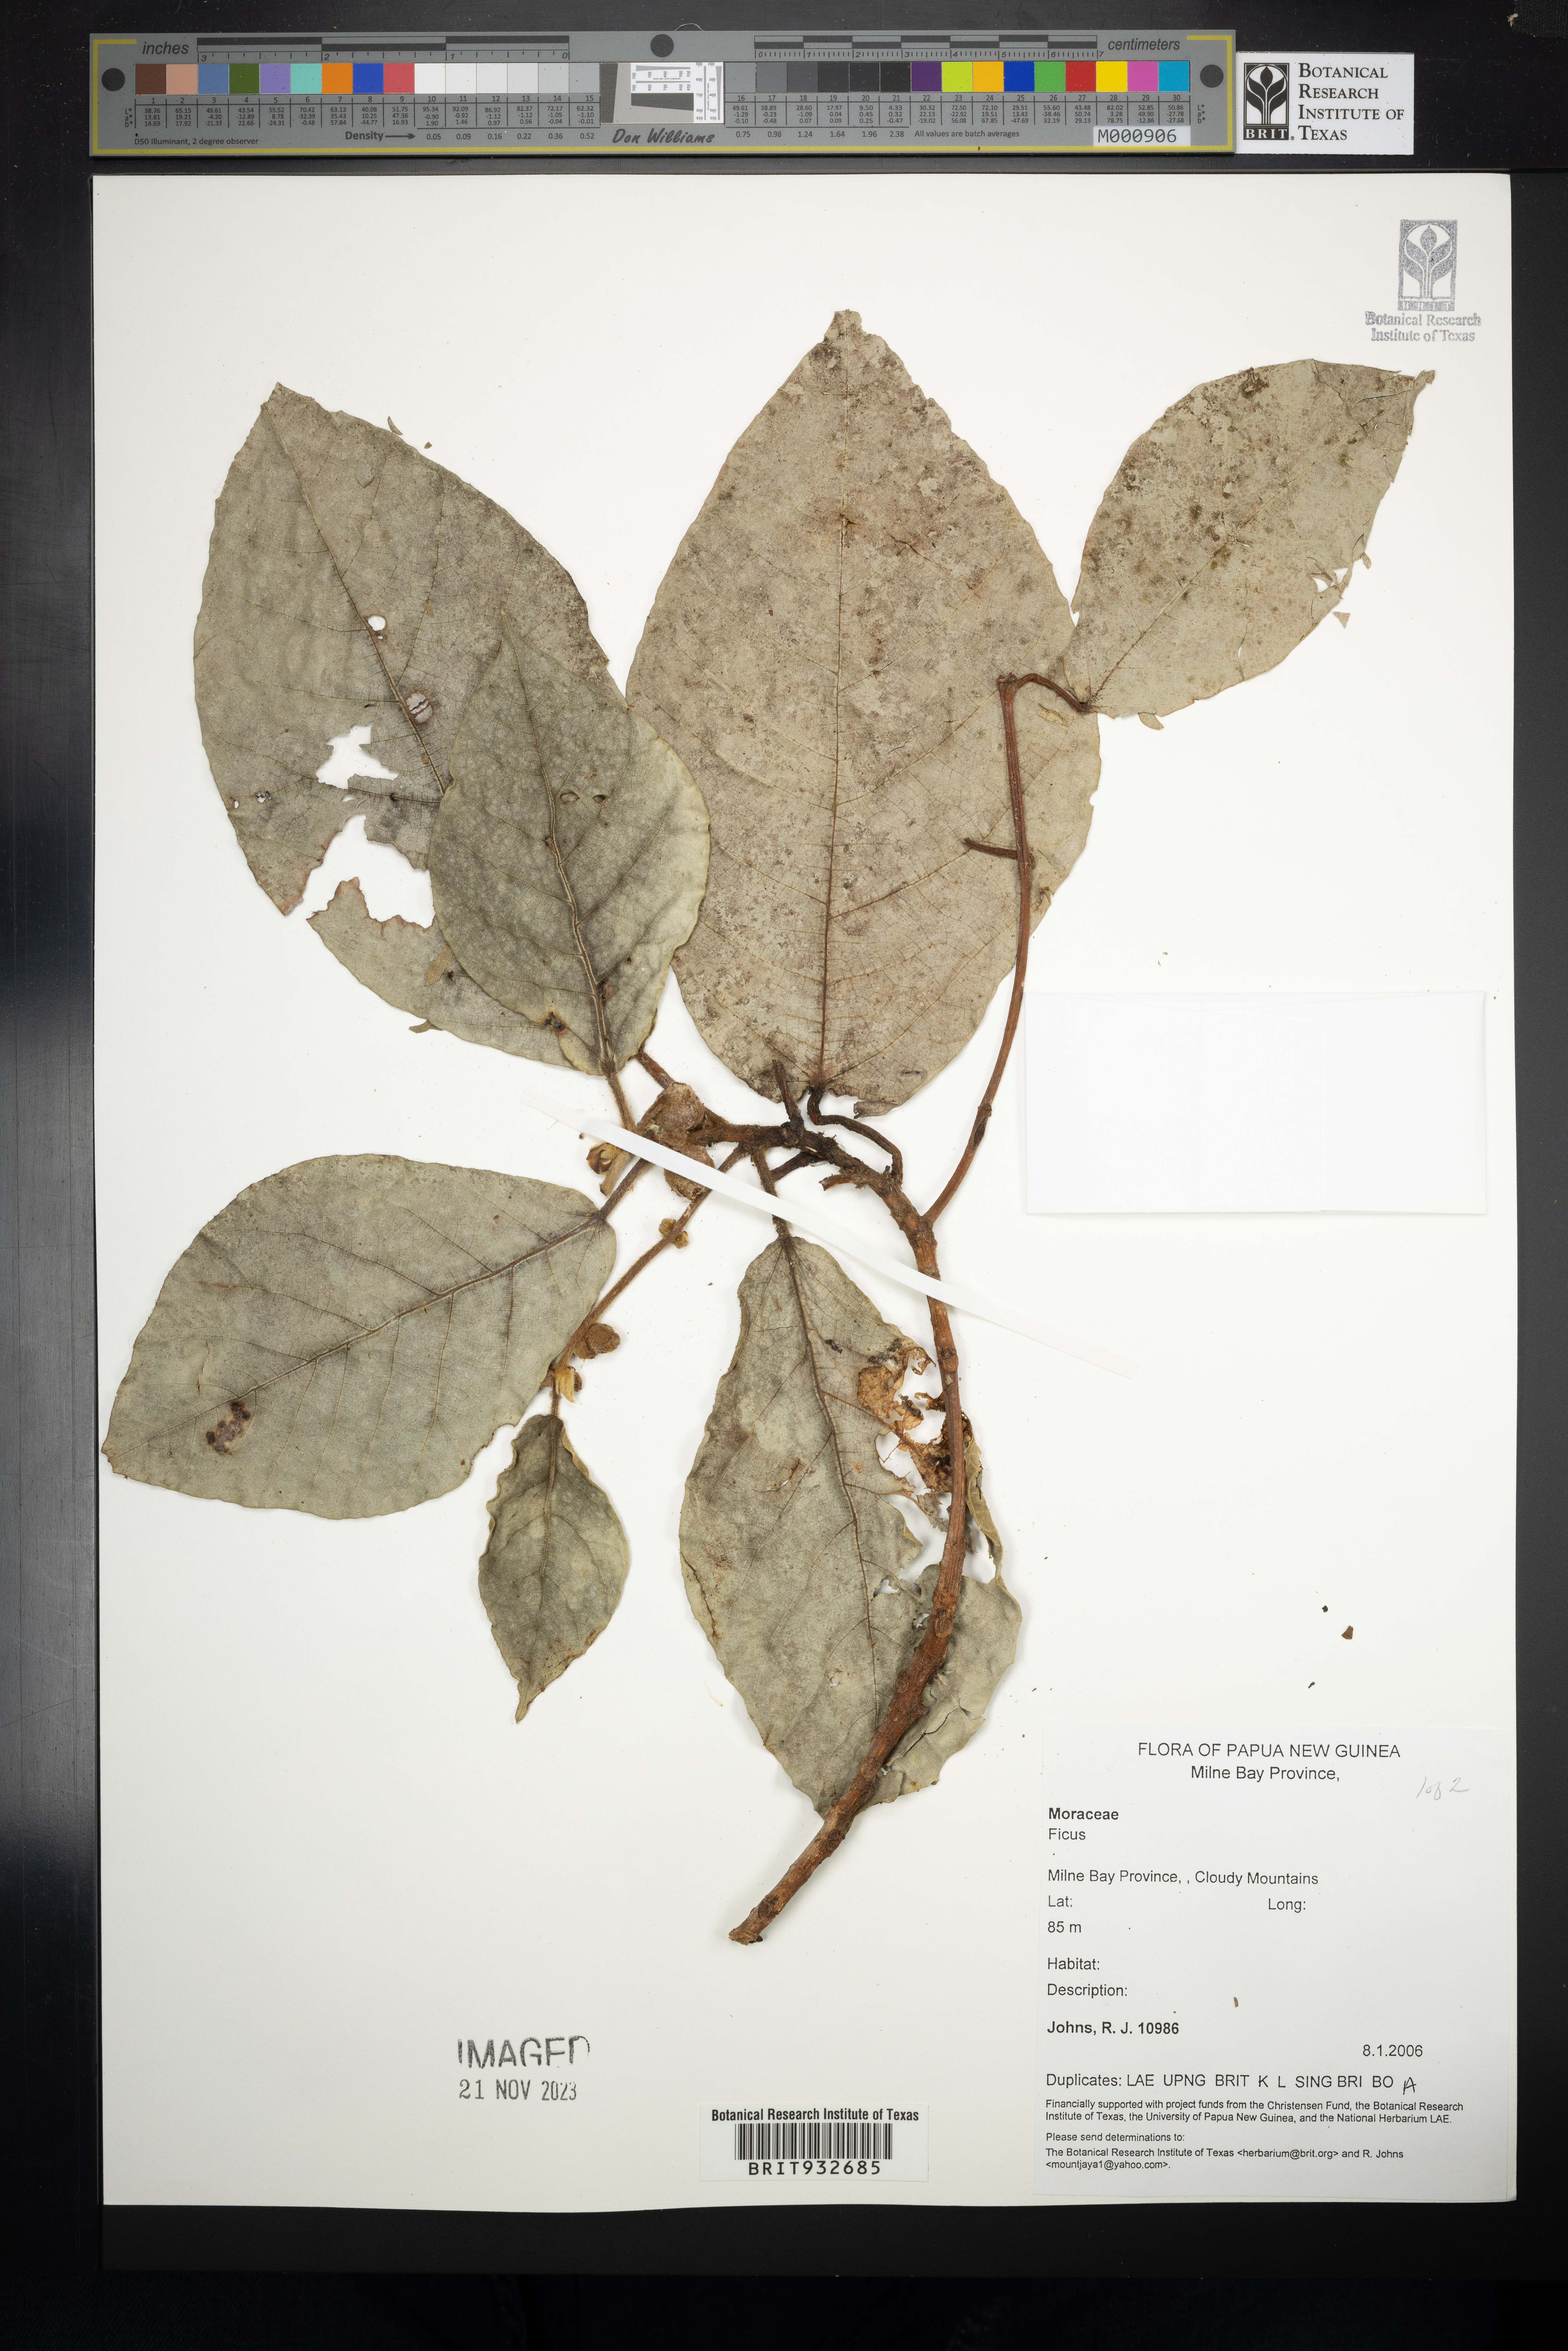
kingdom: Plantae
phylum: Tracheophyta
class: Magnoliopsida
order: Rosales
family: Moraceae
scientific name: Moraceae
